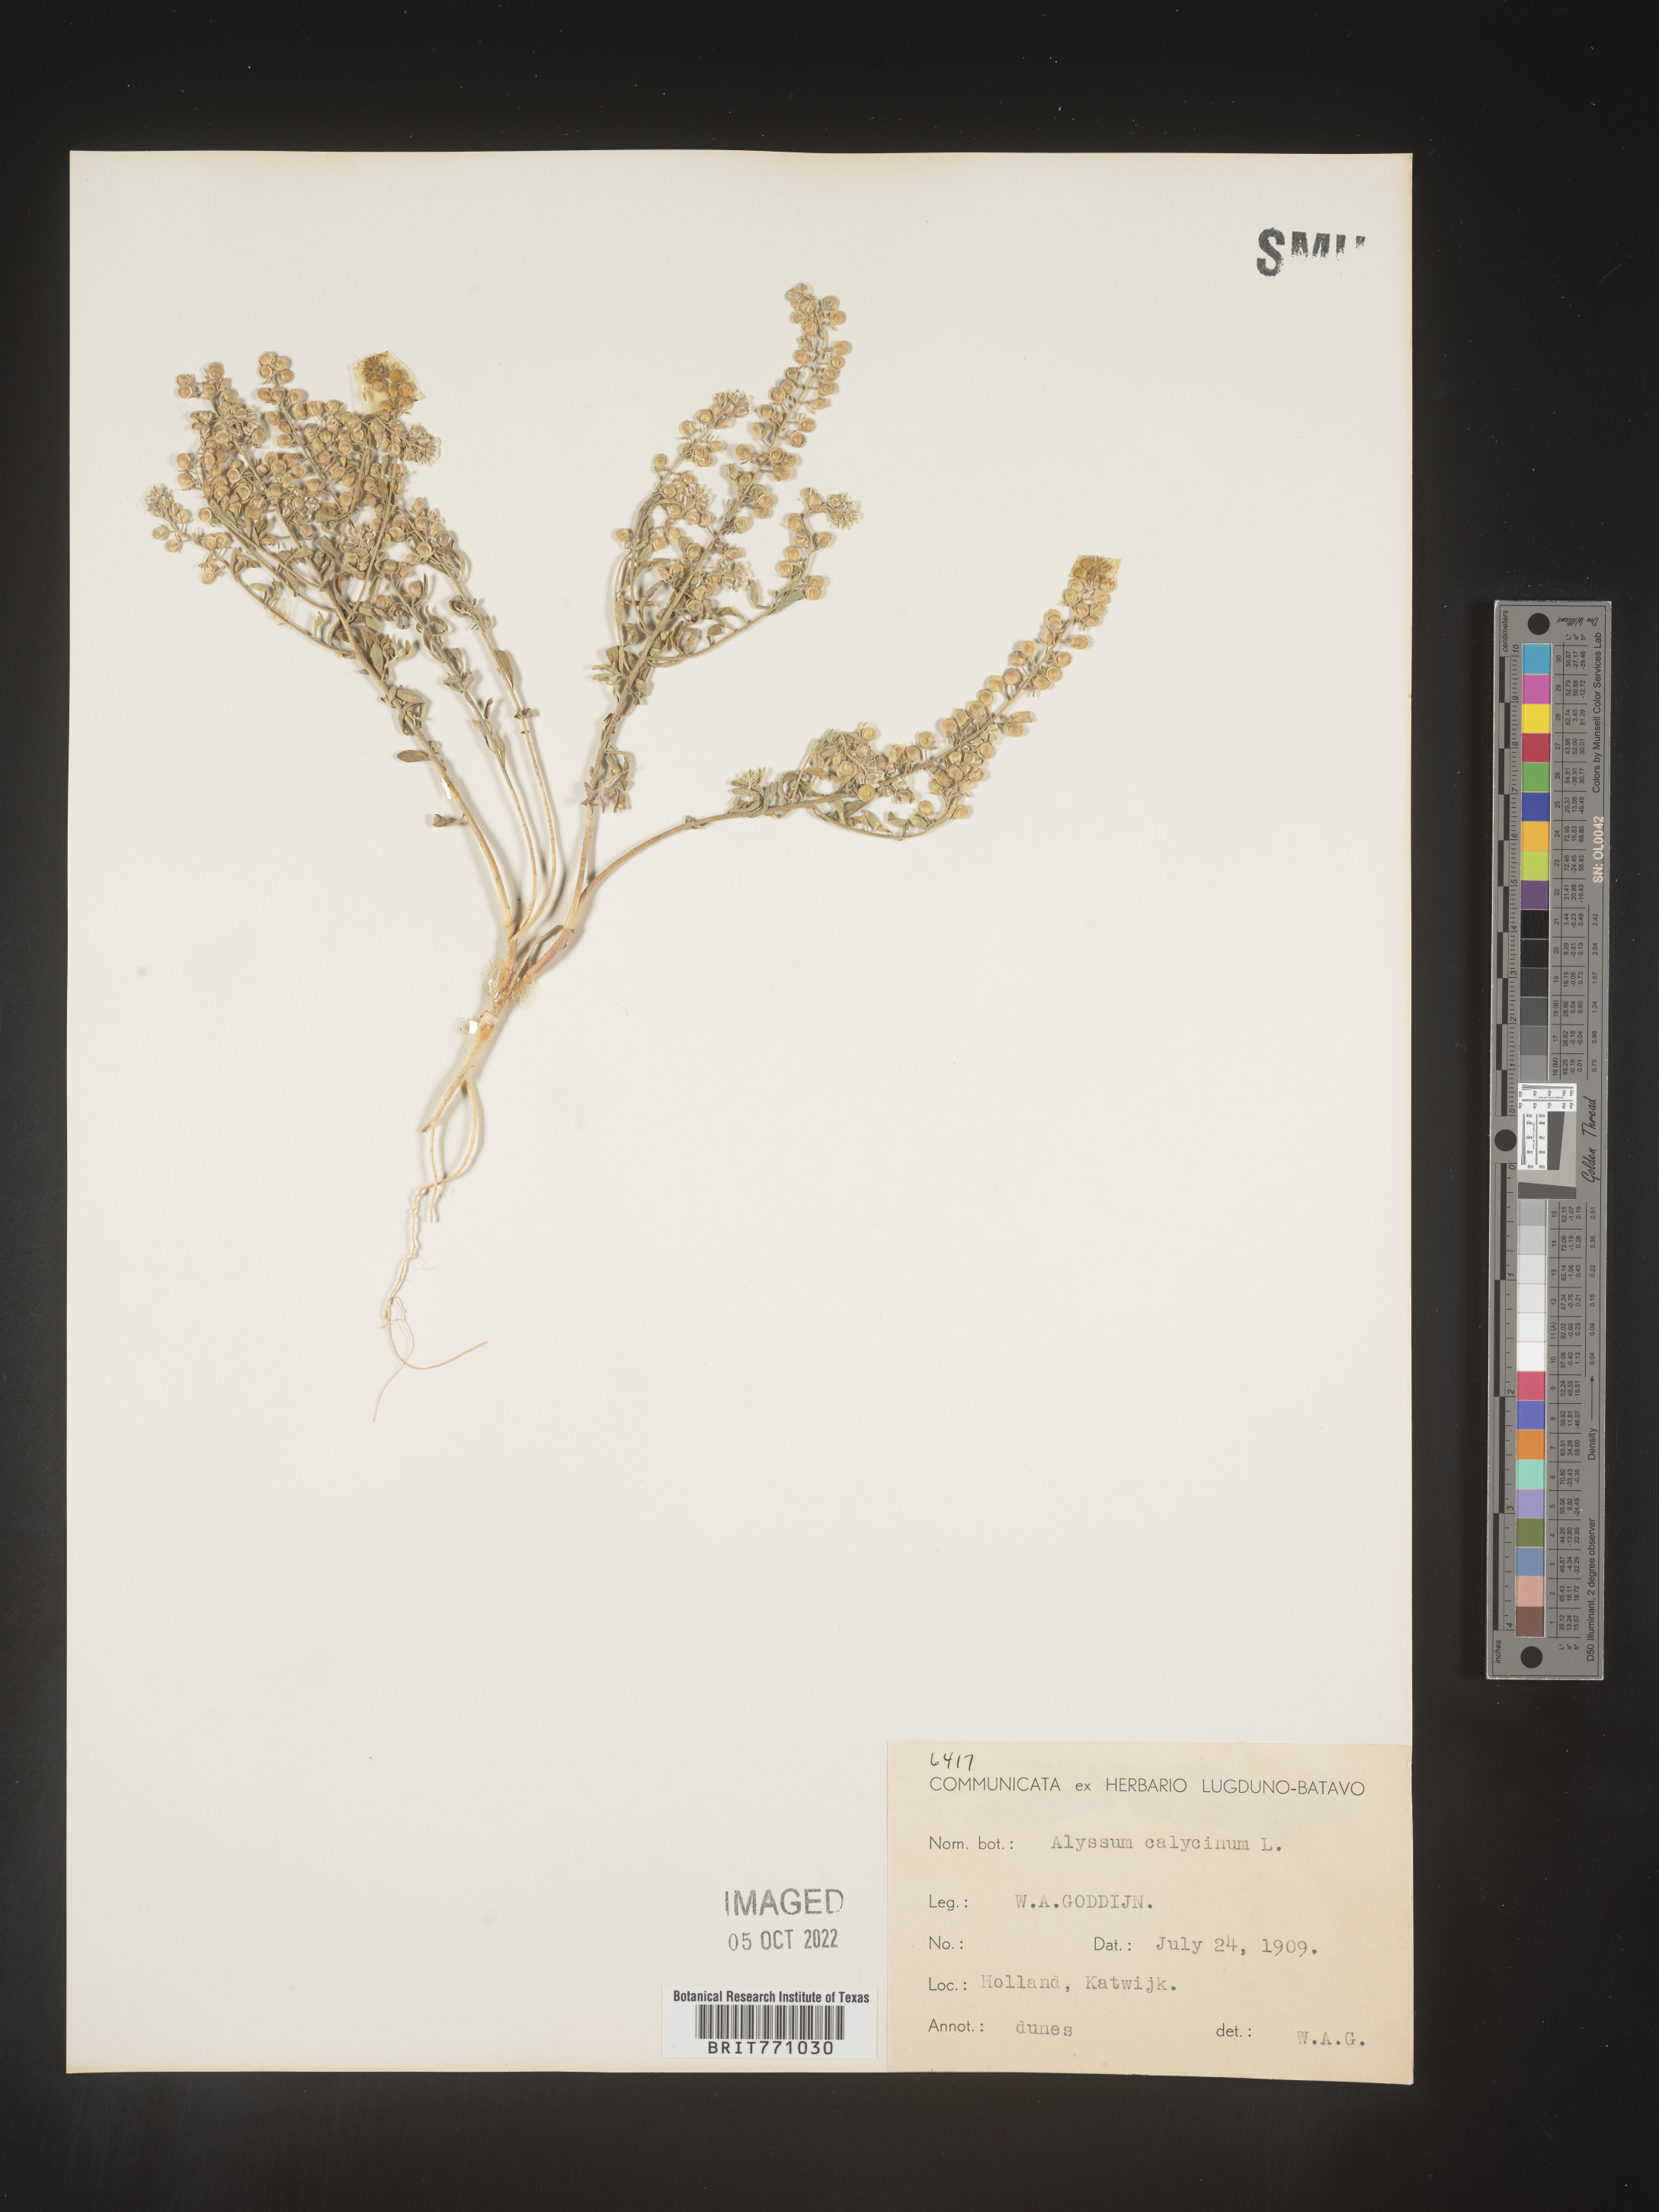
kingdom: Plantae
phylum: Tracheophyta
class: Magnoliopsida
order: Brassicales
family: Brassicaceae
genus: Alyssum
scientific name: Alyssum
